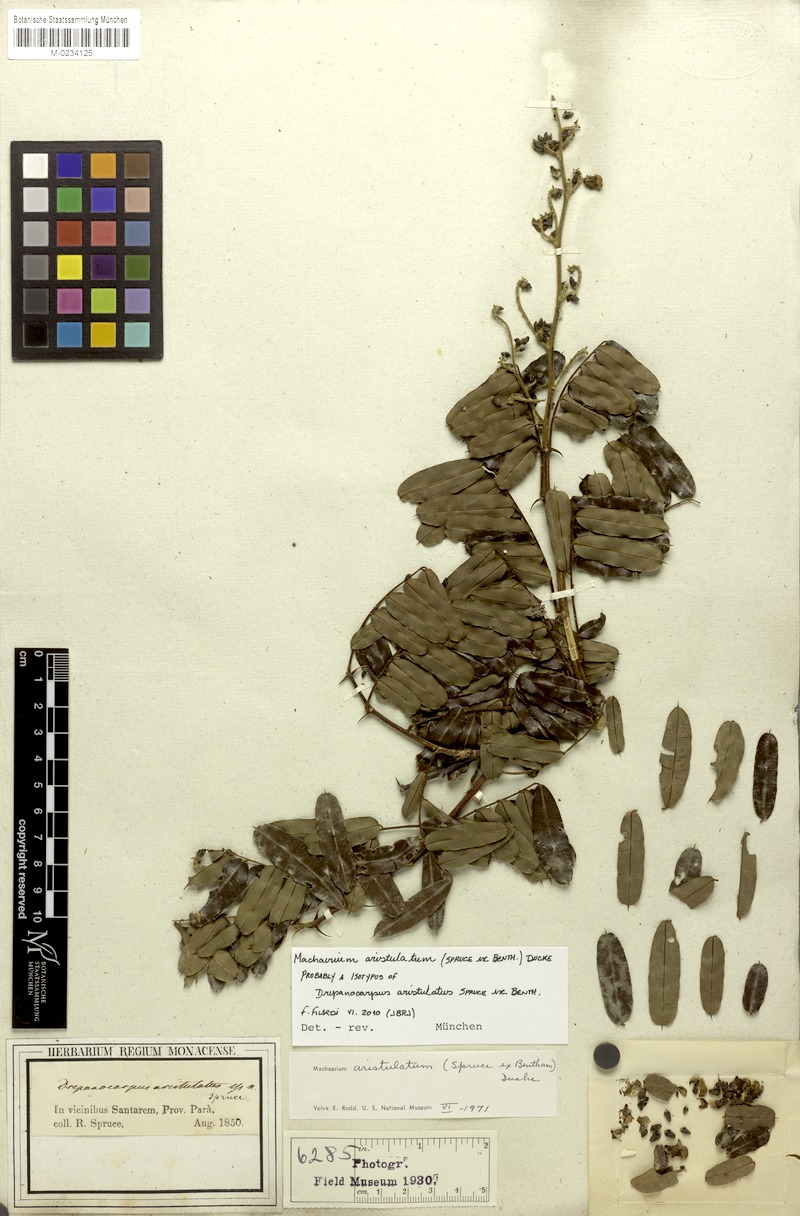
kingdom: Plantae
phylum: Tracheophyta
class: Magnoliopsida
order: Fabales
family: Fabaceae
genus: Machaerium
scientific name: Machaerium aristulatum
